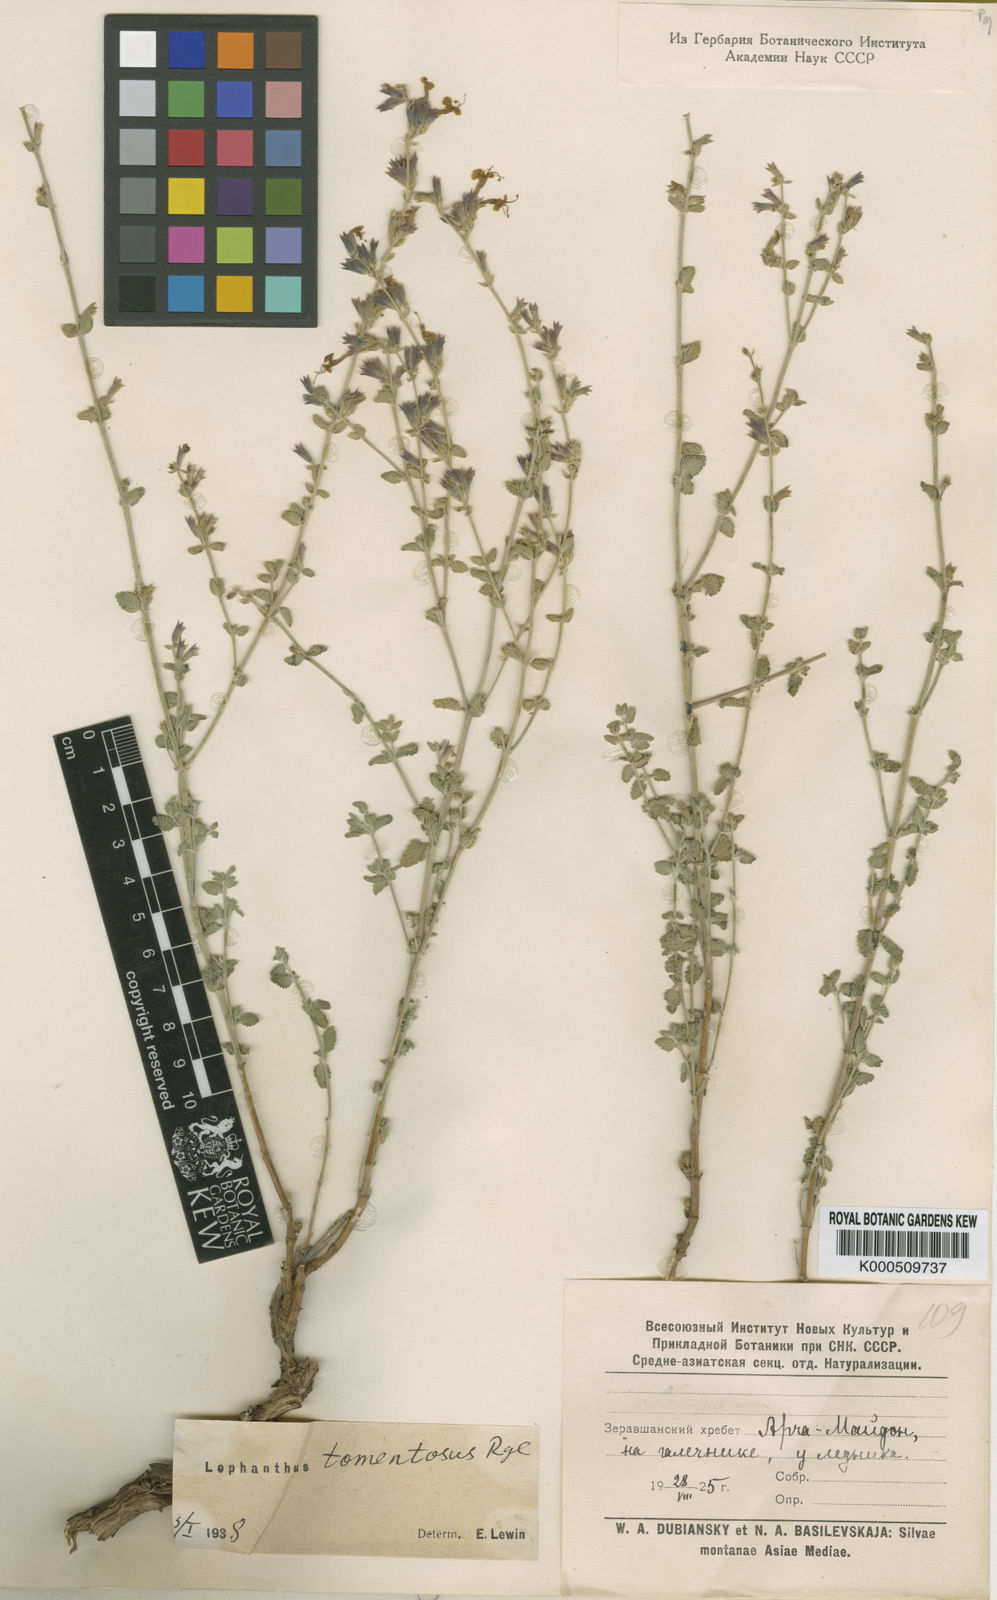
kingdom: Plantae
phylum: Tracheophyta
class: Magnoliopsida
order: Lamiales
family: Lamiaceae
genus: Lophanthus
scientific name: Lophanthus subnivalis
